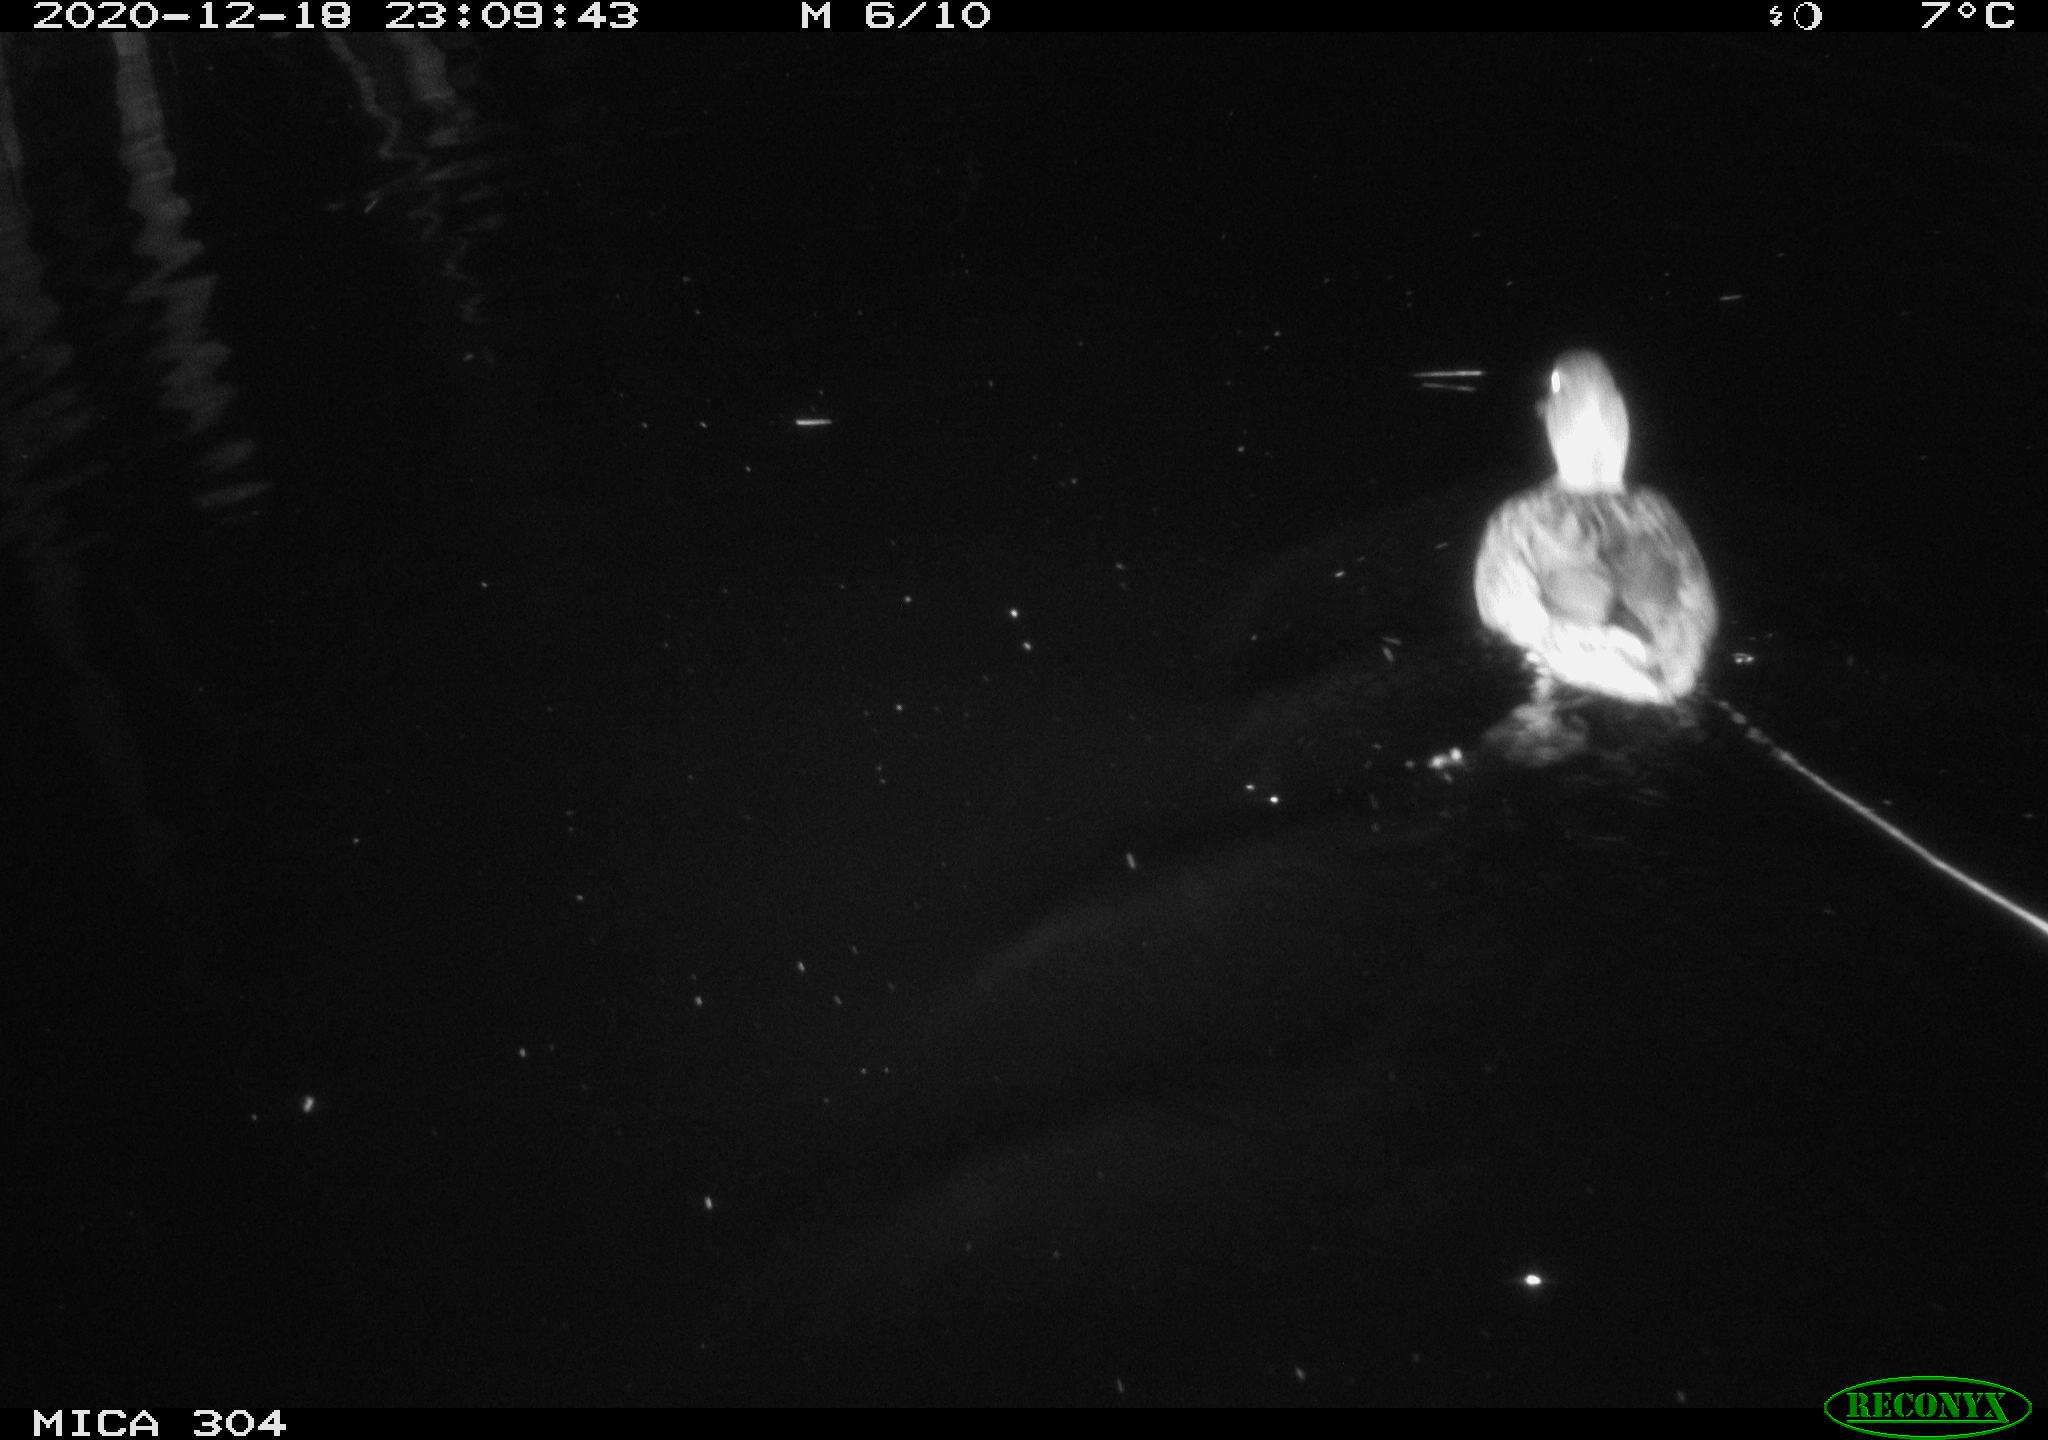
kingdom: Animalia
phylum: Chordata
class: Aves
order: Anseriformes
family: Anatidae
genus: Anas
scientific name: Anas platyrhynchos
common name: Mallard
